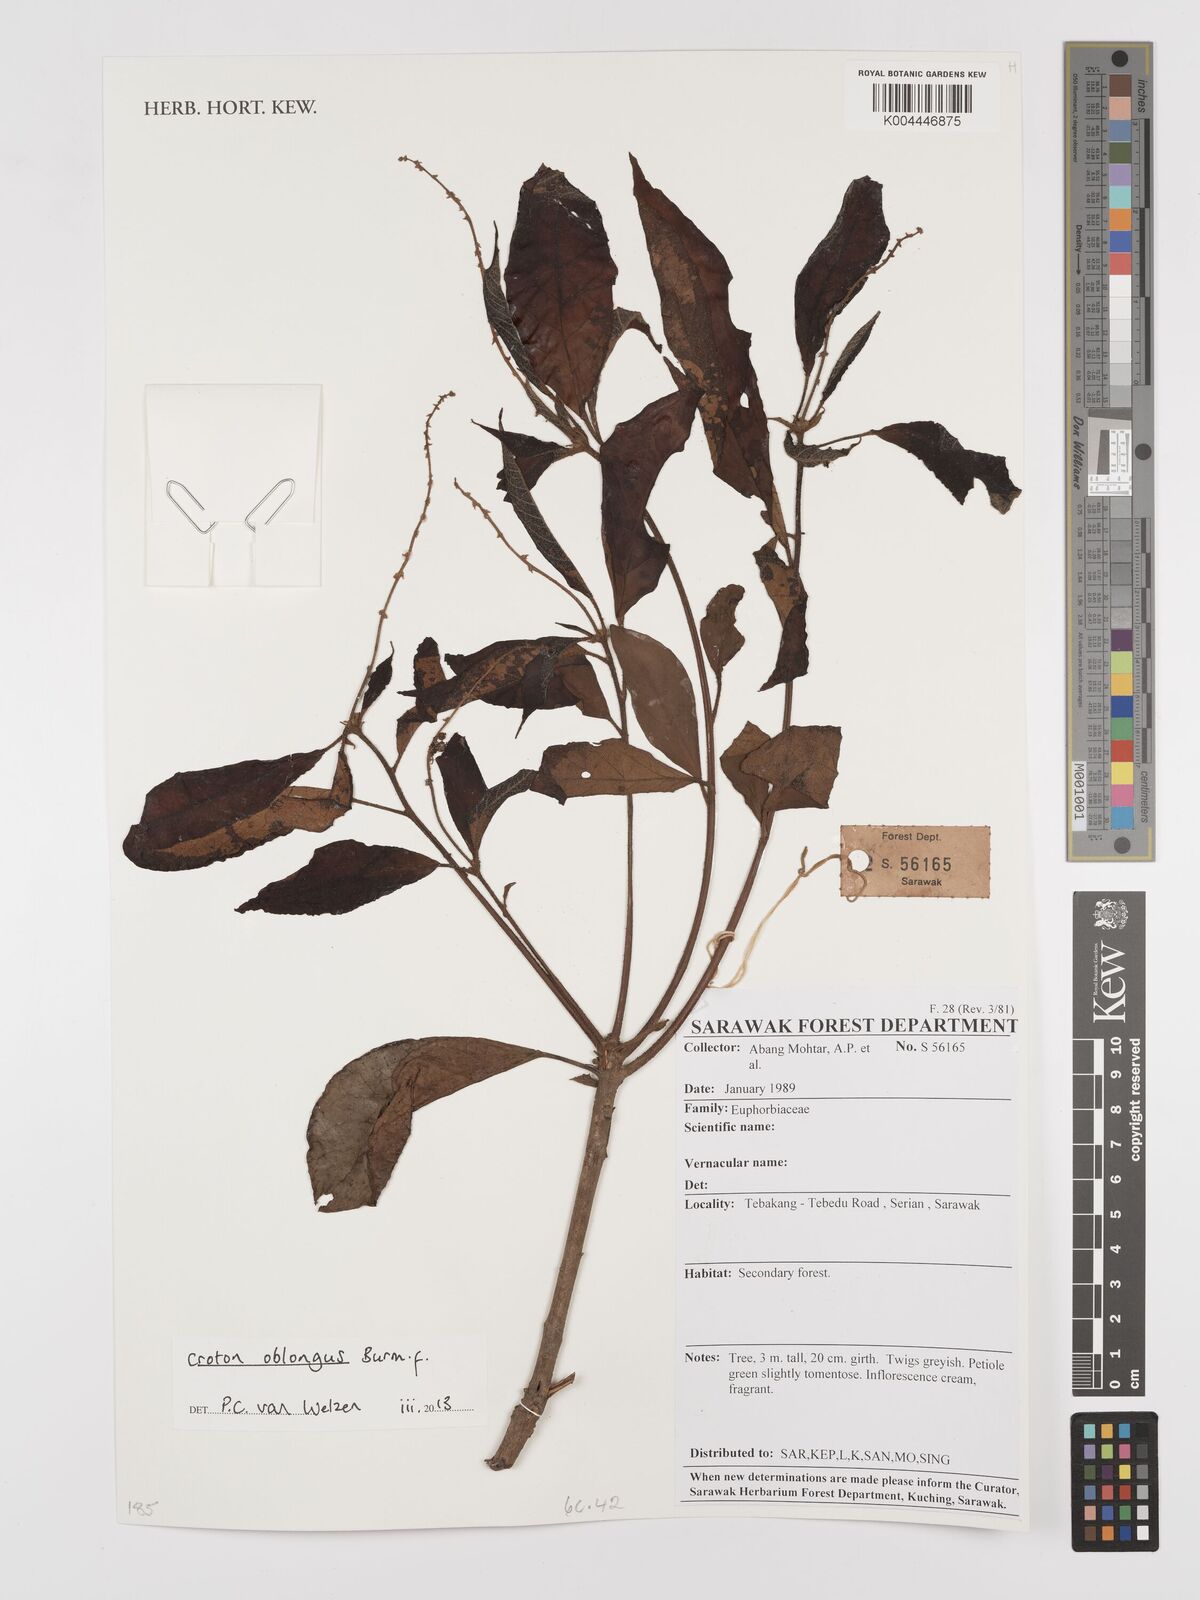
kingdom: Plantae
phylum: Tracheophyta
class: Magnoliopsida
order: Malpighiales
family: Euphorbiaceae
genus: Croton
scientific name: Croton oblongus
